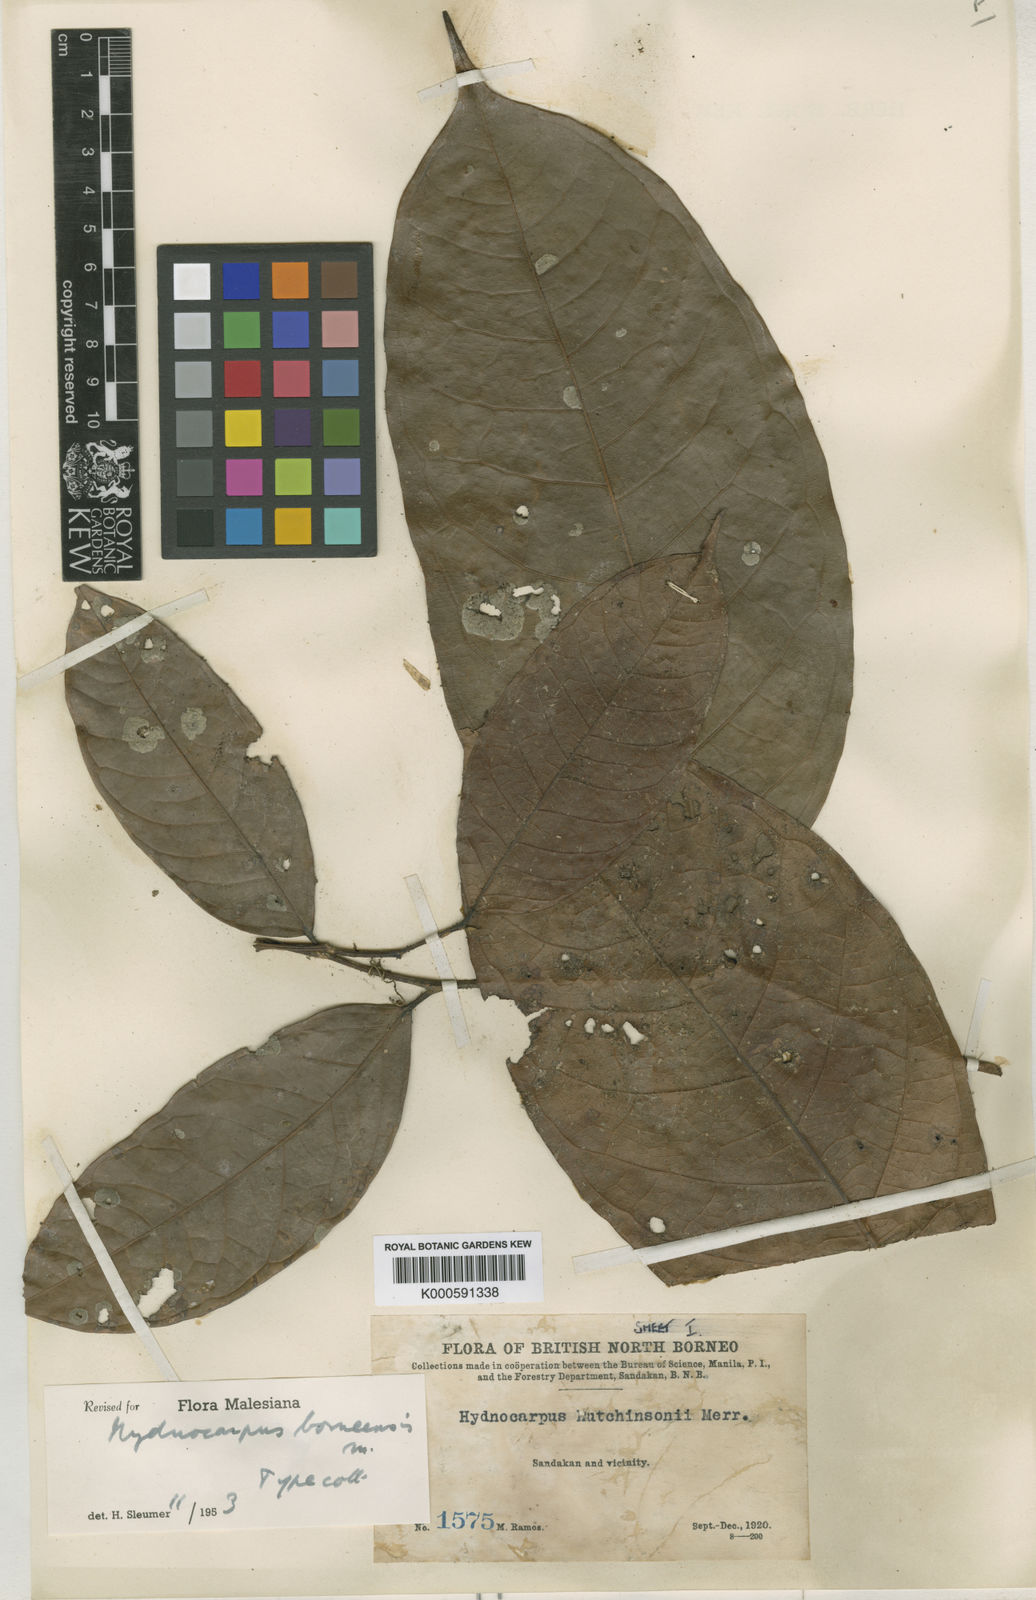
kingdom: Plantae
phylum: Tracheophyta
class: Magnoliopsida
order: Malpighiales
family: Achariaceae
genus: Hydnocarpus
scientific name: Hydnocarpus borneensis
